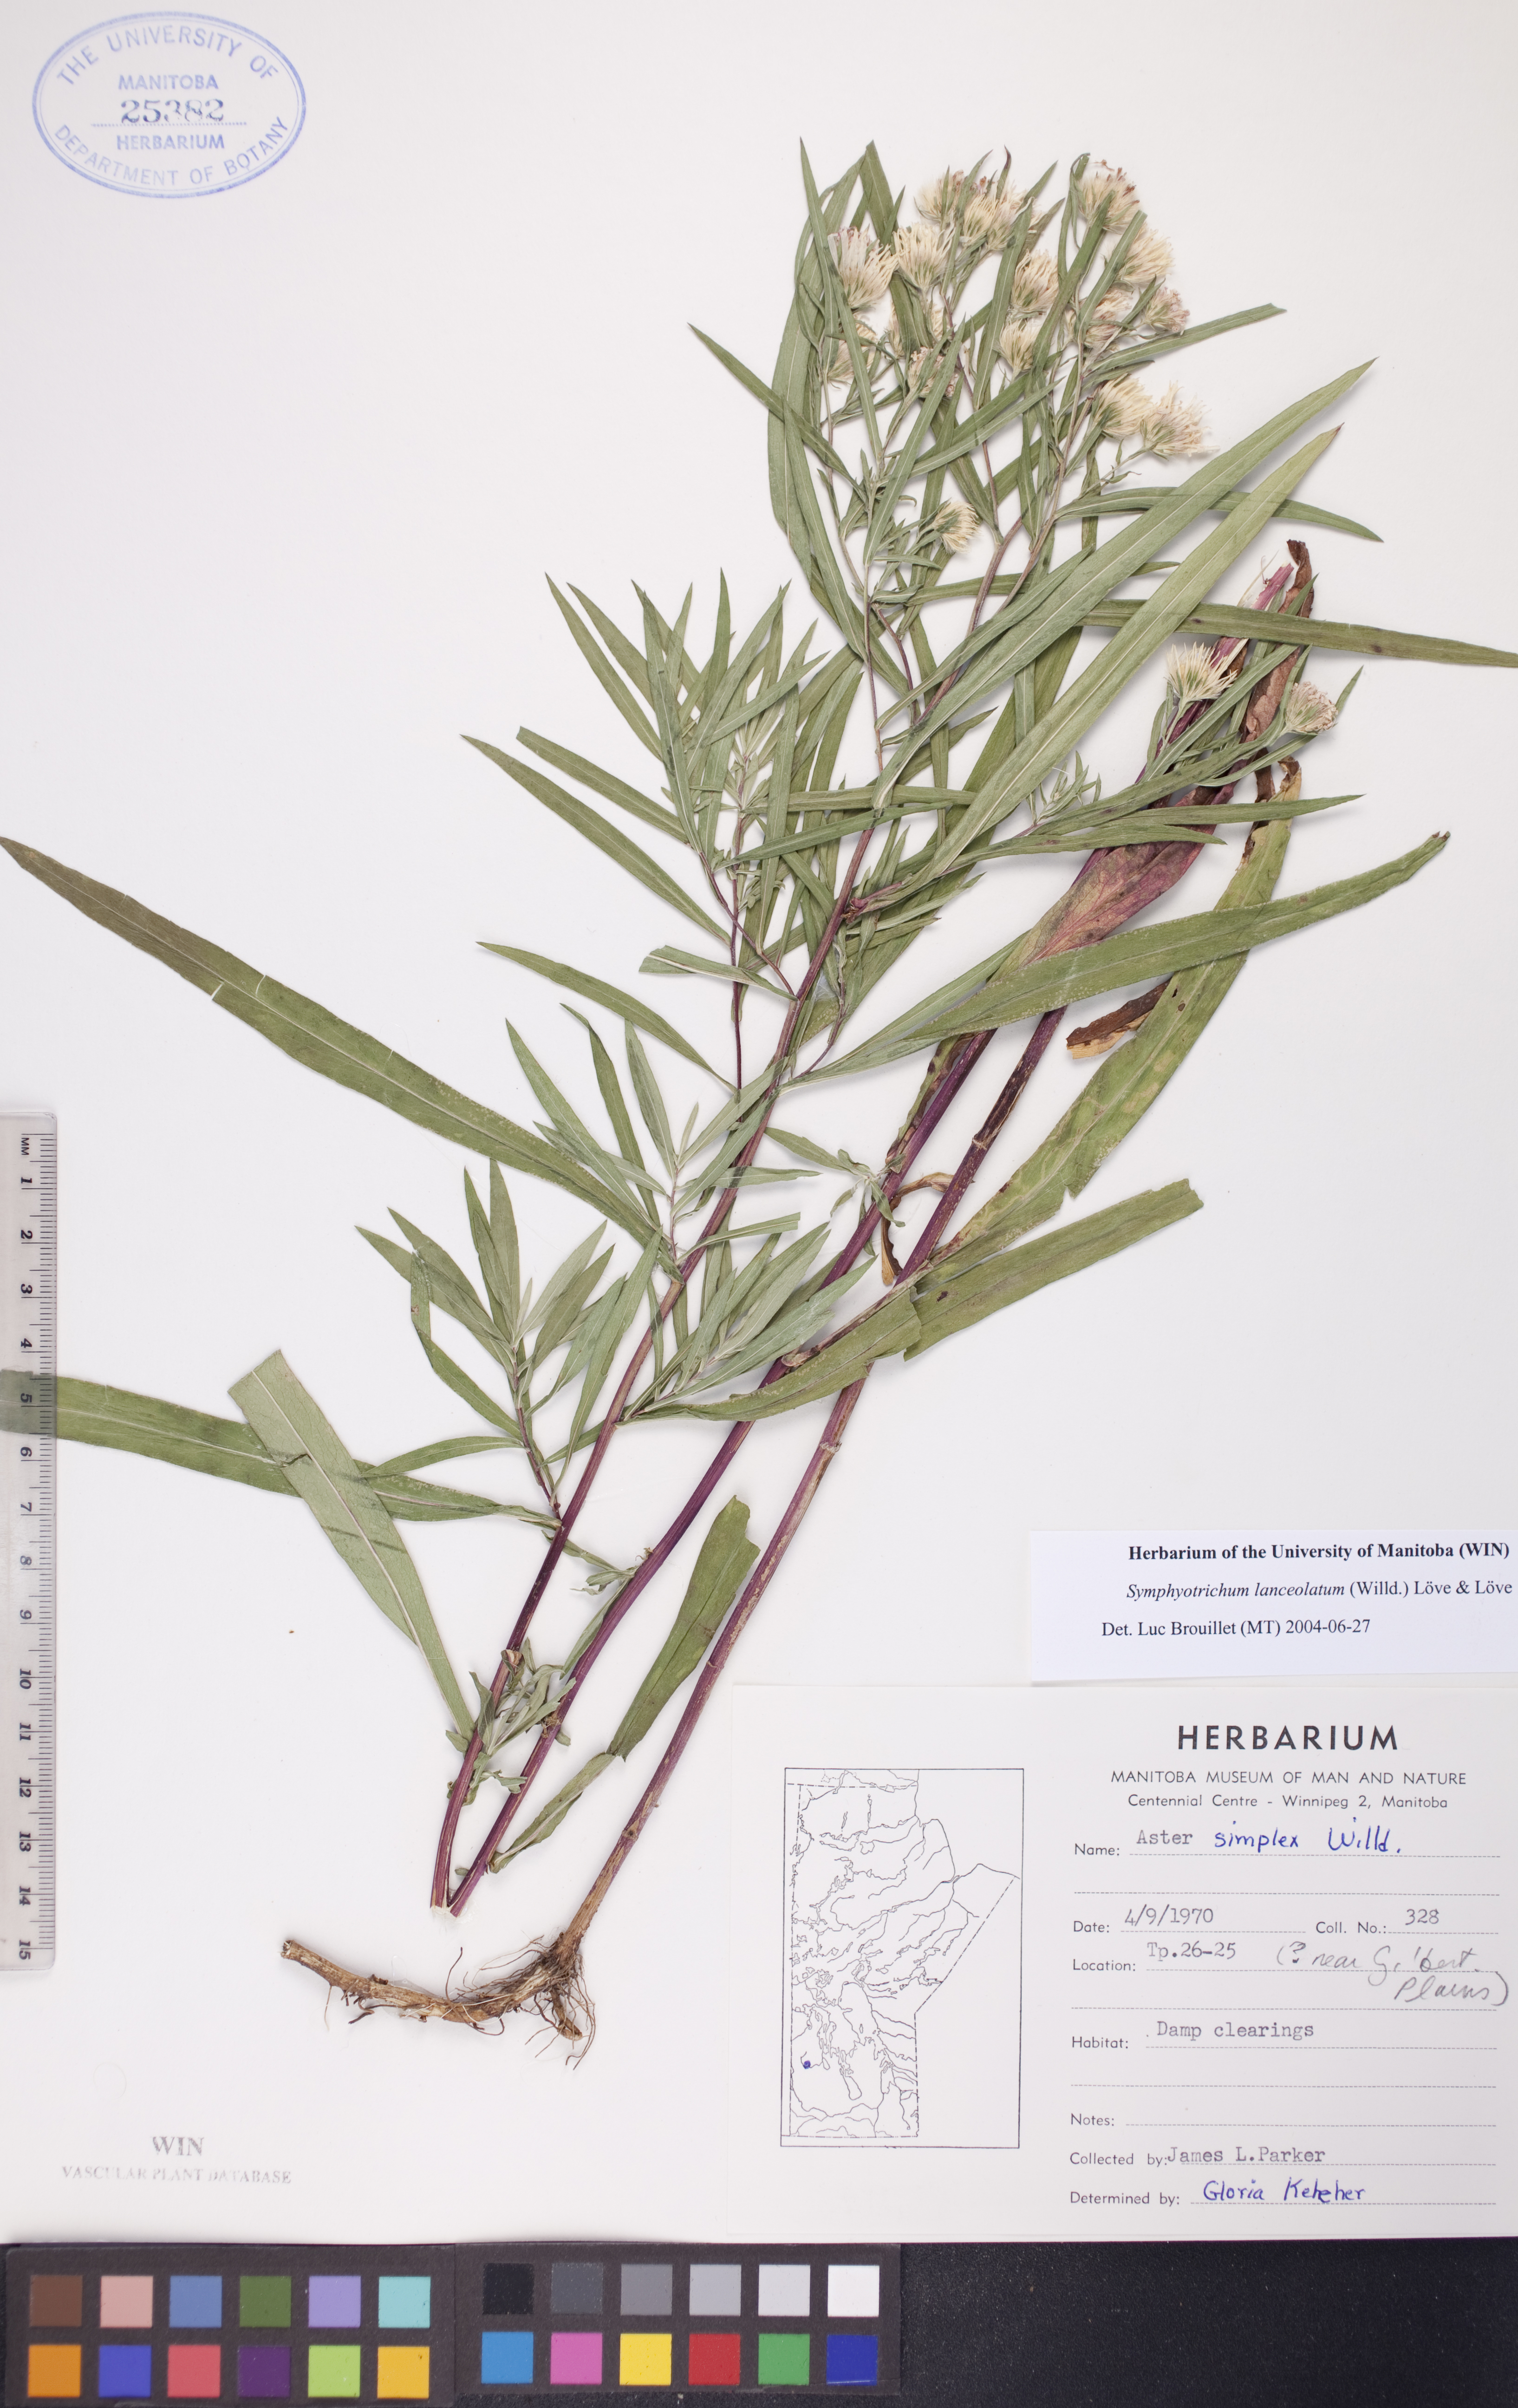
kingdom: Plantae
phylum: Tracheophyta
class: Magnoliopsida
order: Asterales
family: Asteraceae
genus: Symphyotrichum
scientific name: Symphyotrichum lanceolatum
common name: Panicled aster
